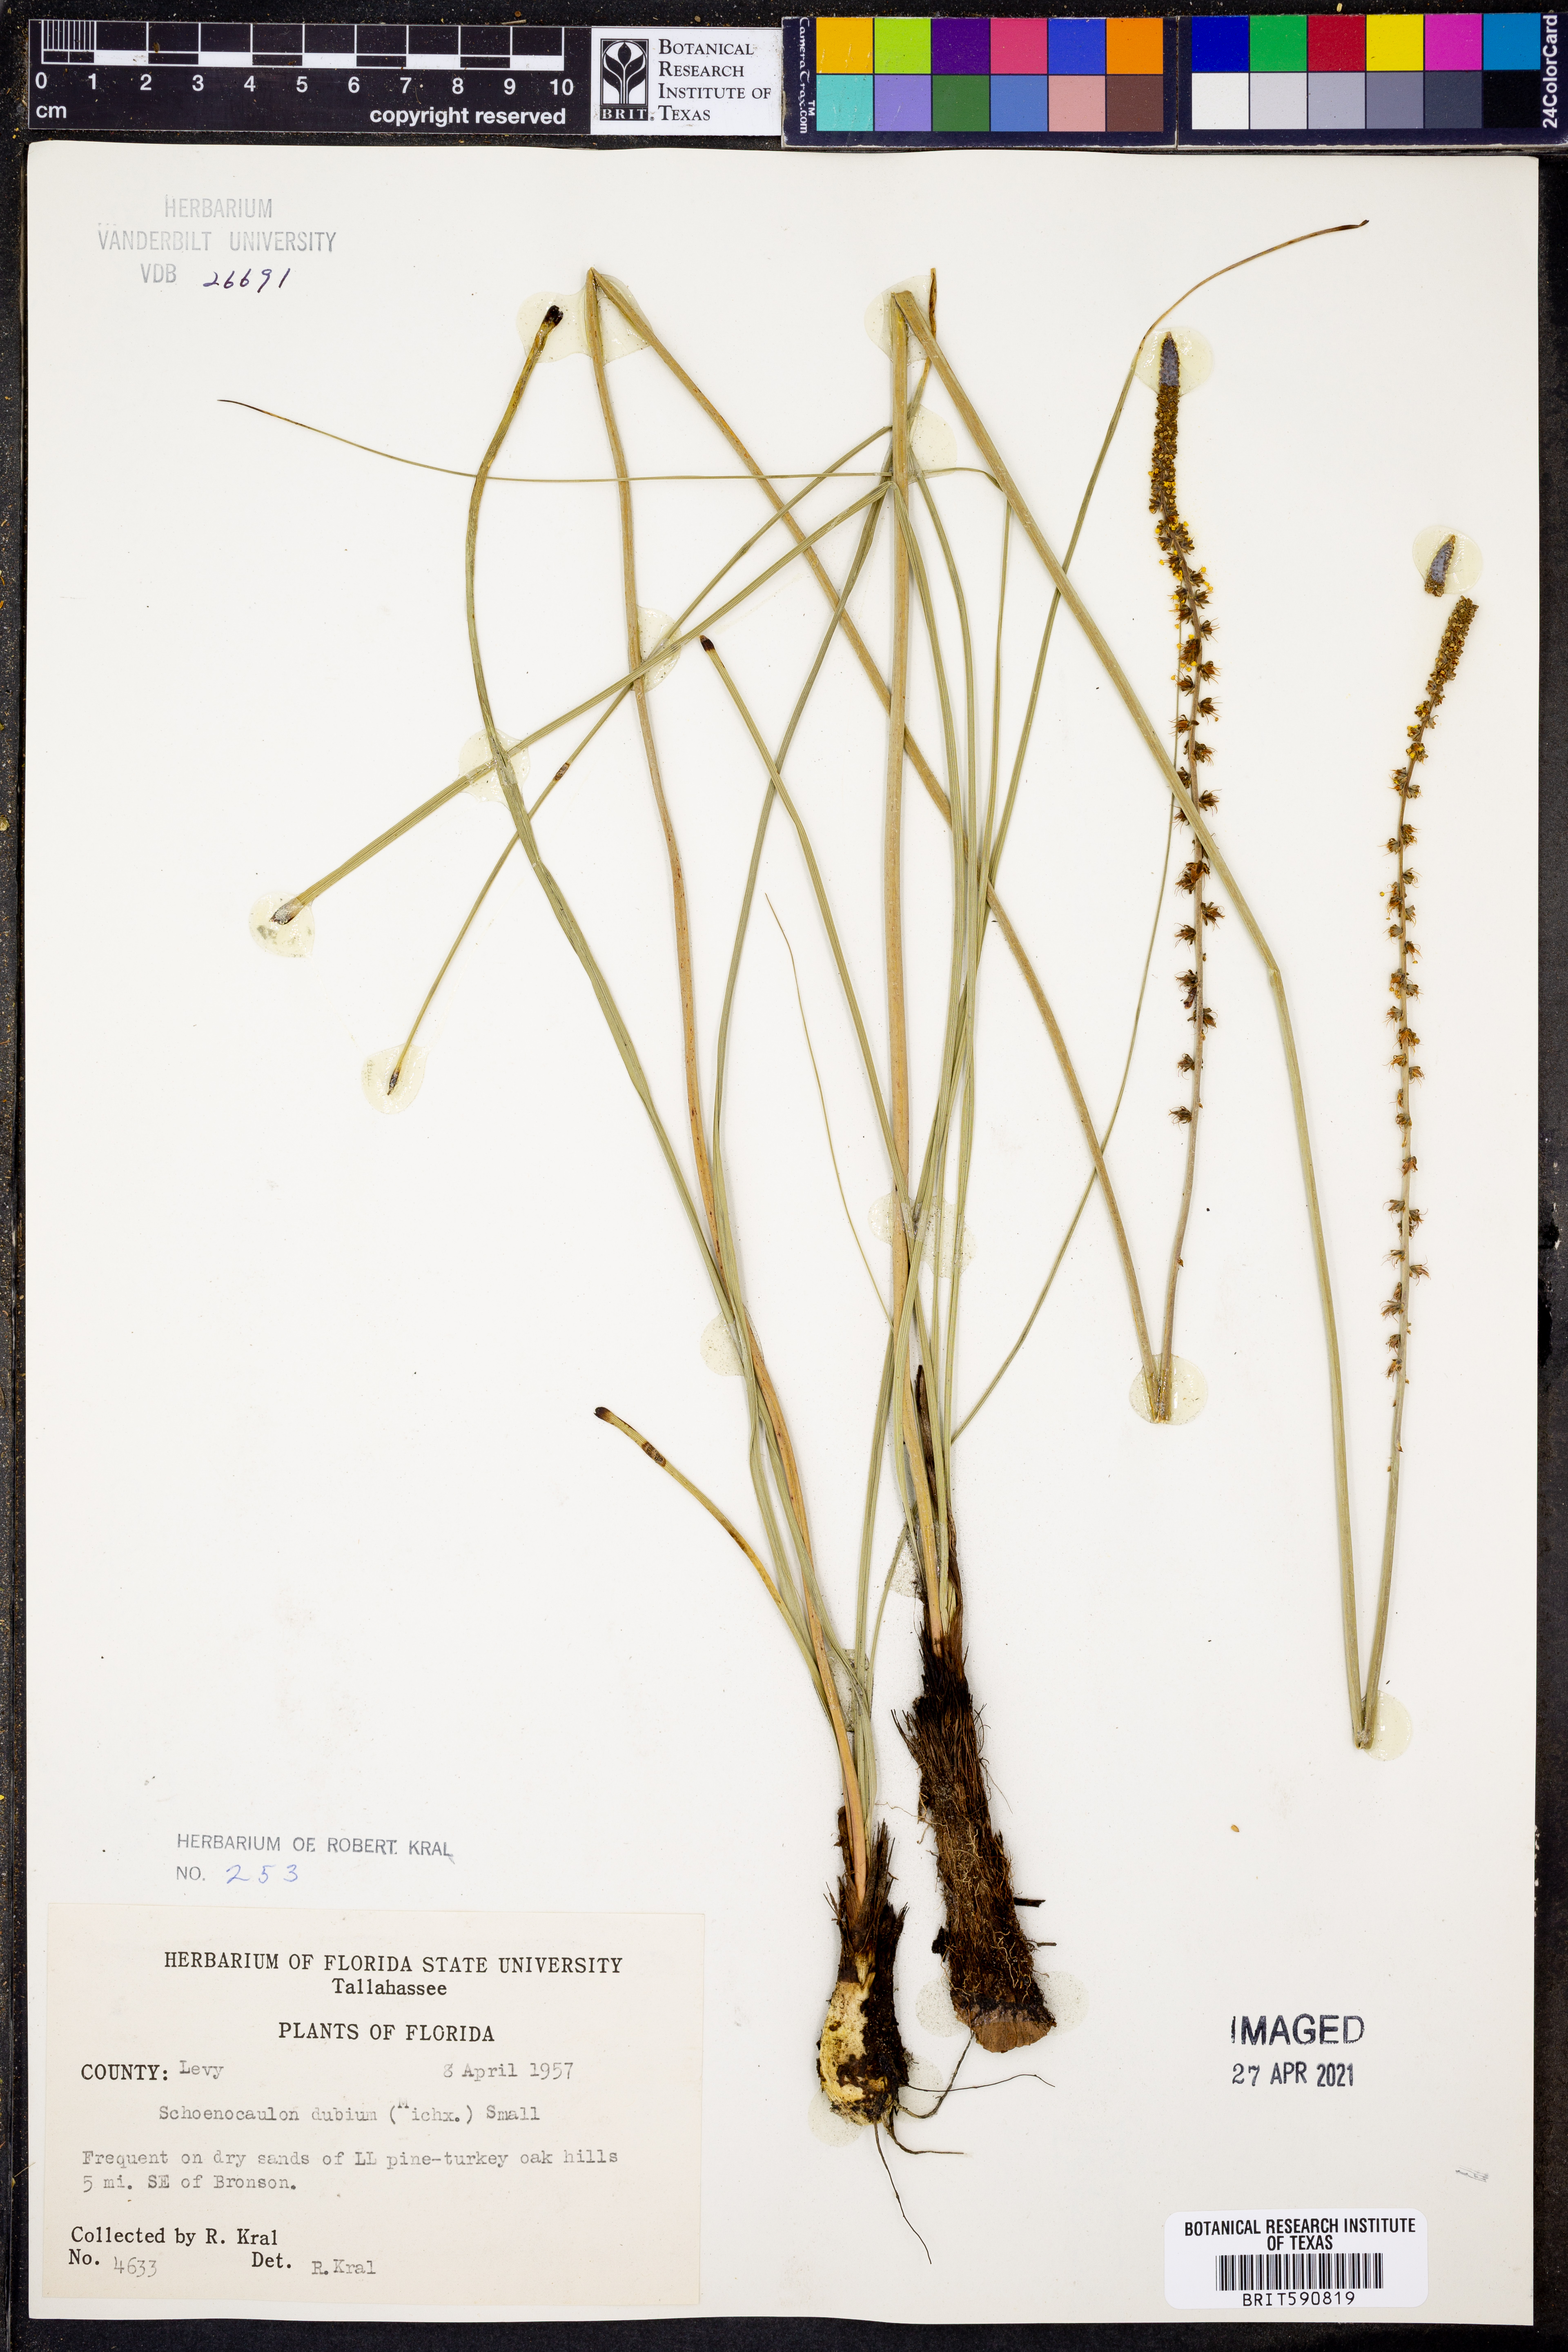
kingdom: Plantae
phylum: Tracheophyta
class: Liliopsida
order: Liliales
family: Melanthiaceae
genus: Schoenocaulon
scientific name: Schoenocaulon dubium
